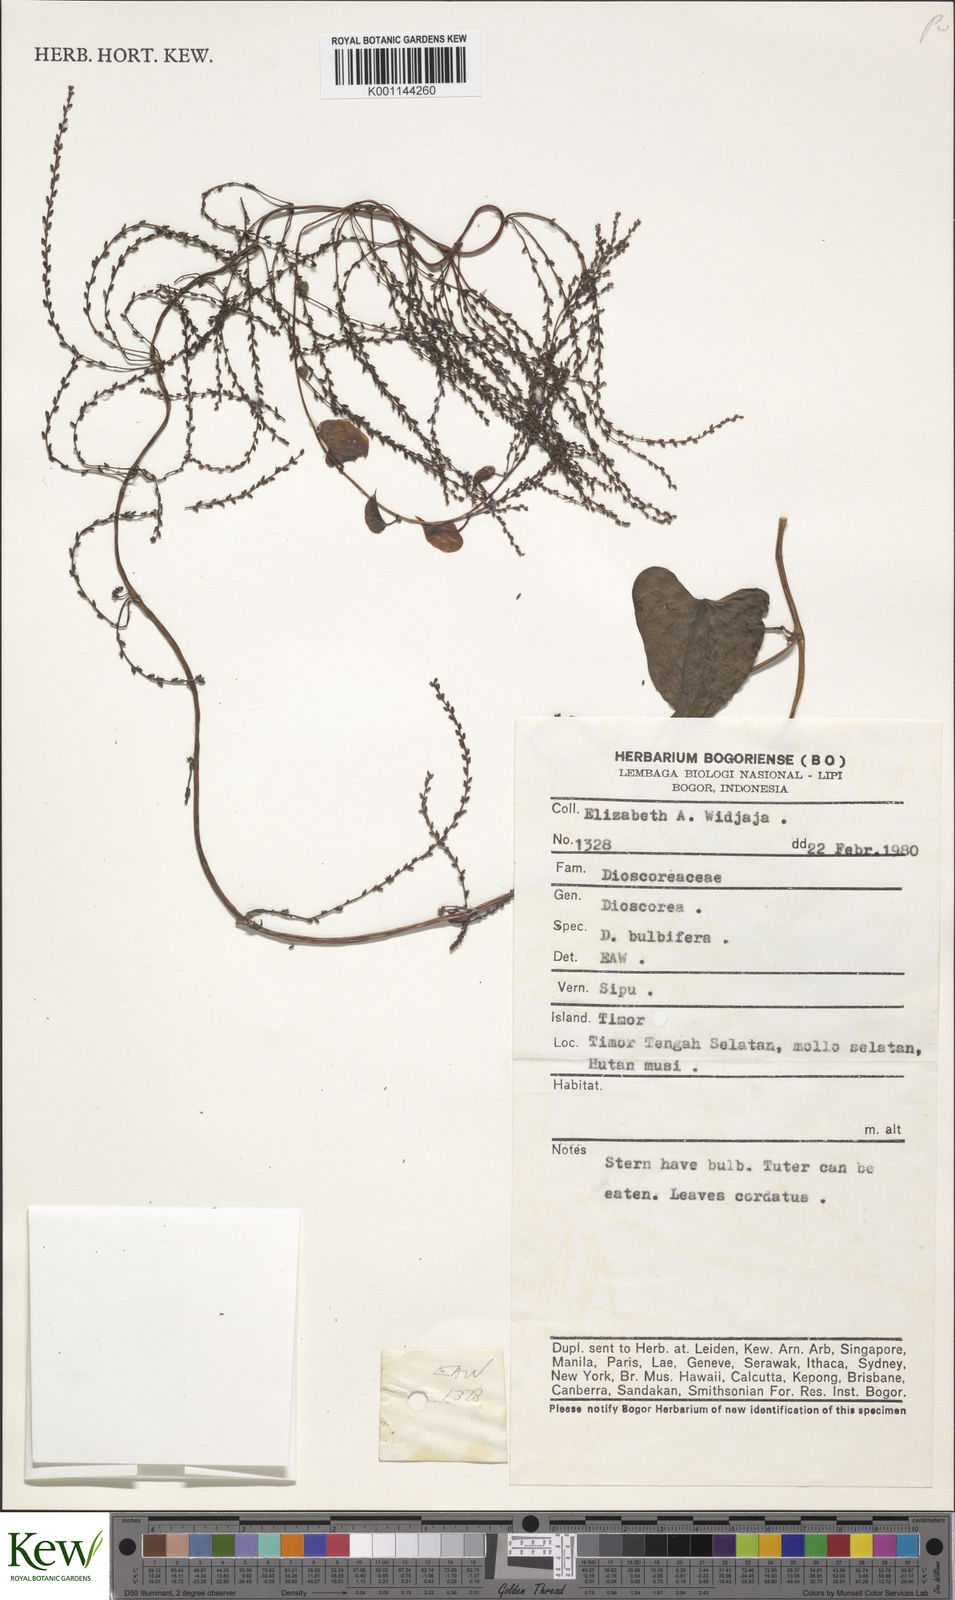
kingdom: Plantae
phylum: Tracheophyta
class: Liliopsida
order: Dioscoreales
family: Dioscoreaceae
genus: Dioscorea
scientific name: Dioscorea bulbifera
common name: Air yam
